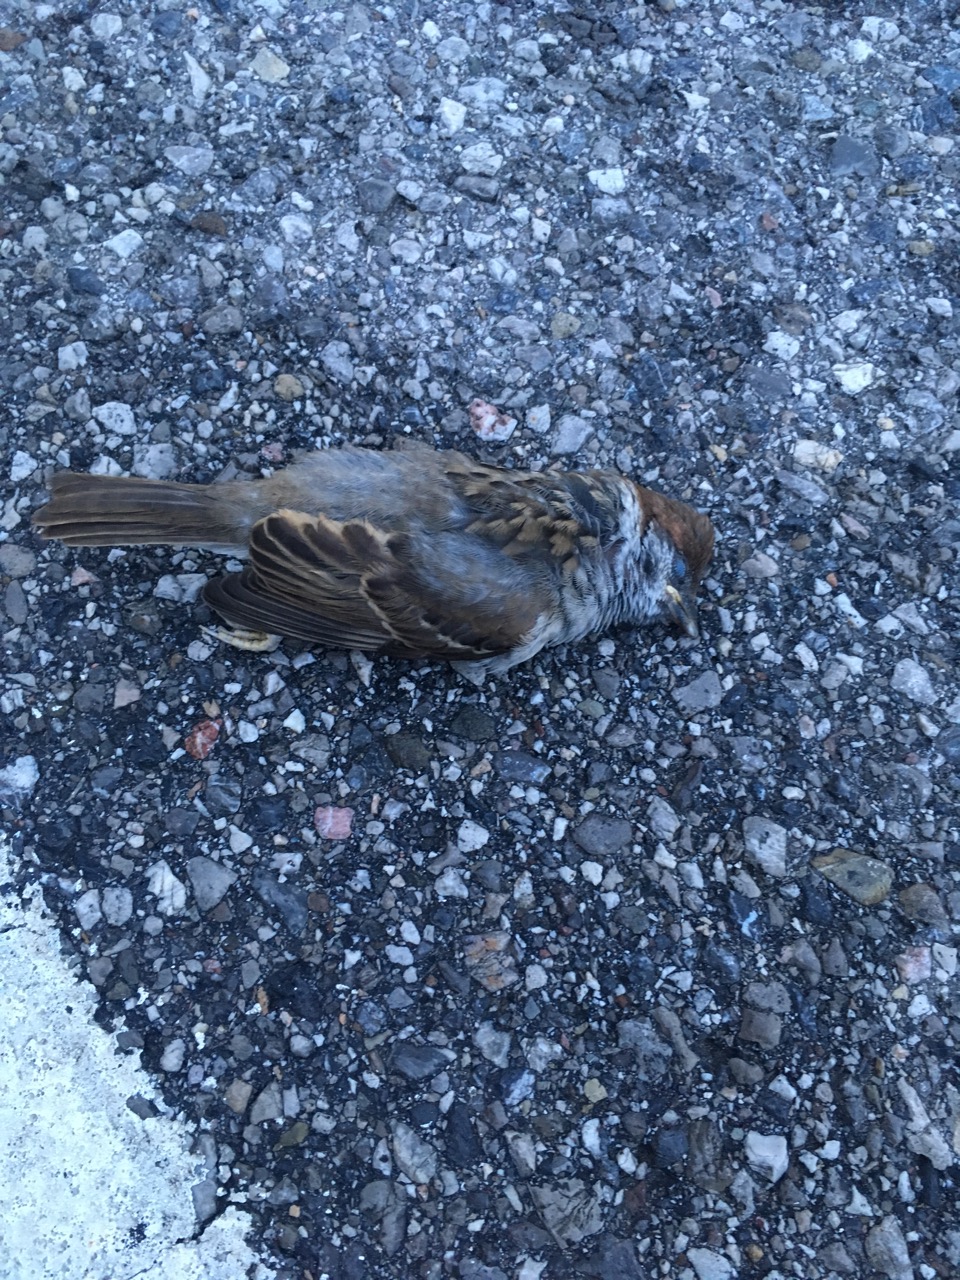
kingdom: Animalia
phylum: Chordata
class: Aves
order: Passeriformes
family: Passeridae
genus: Passer
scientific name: Passer montanus
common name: Eurasian tree sparrow
